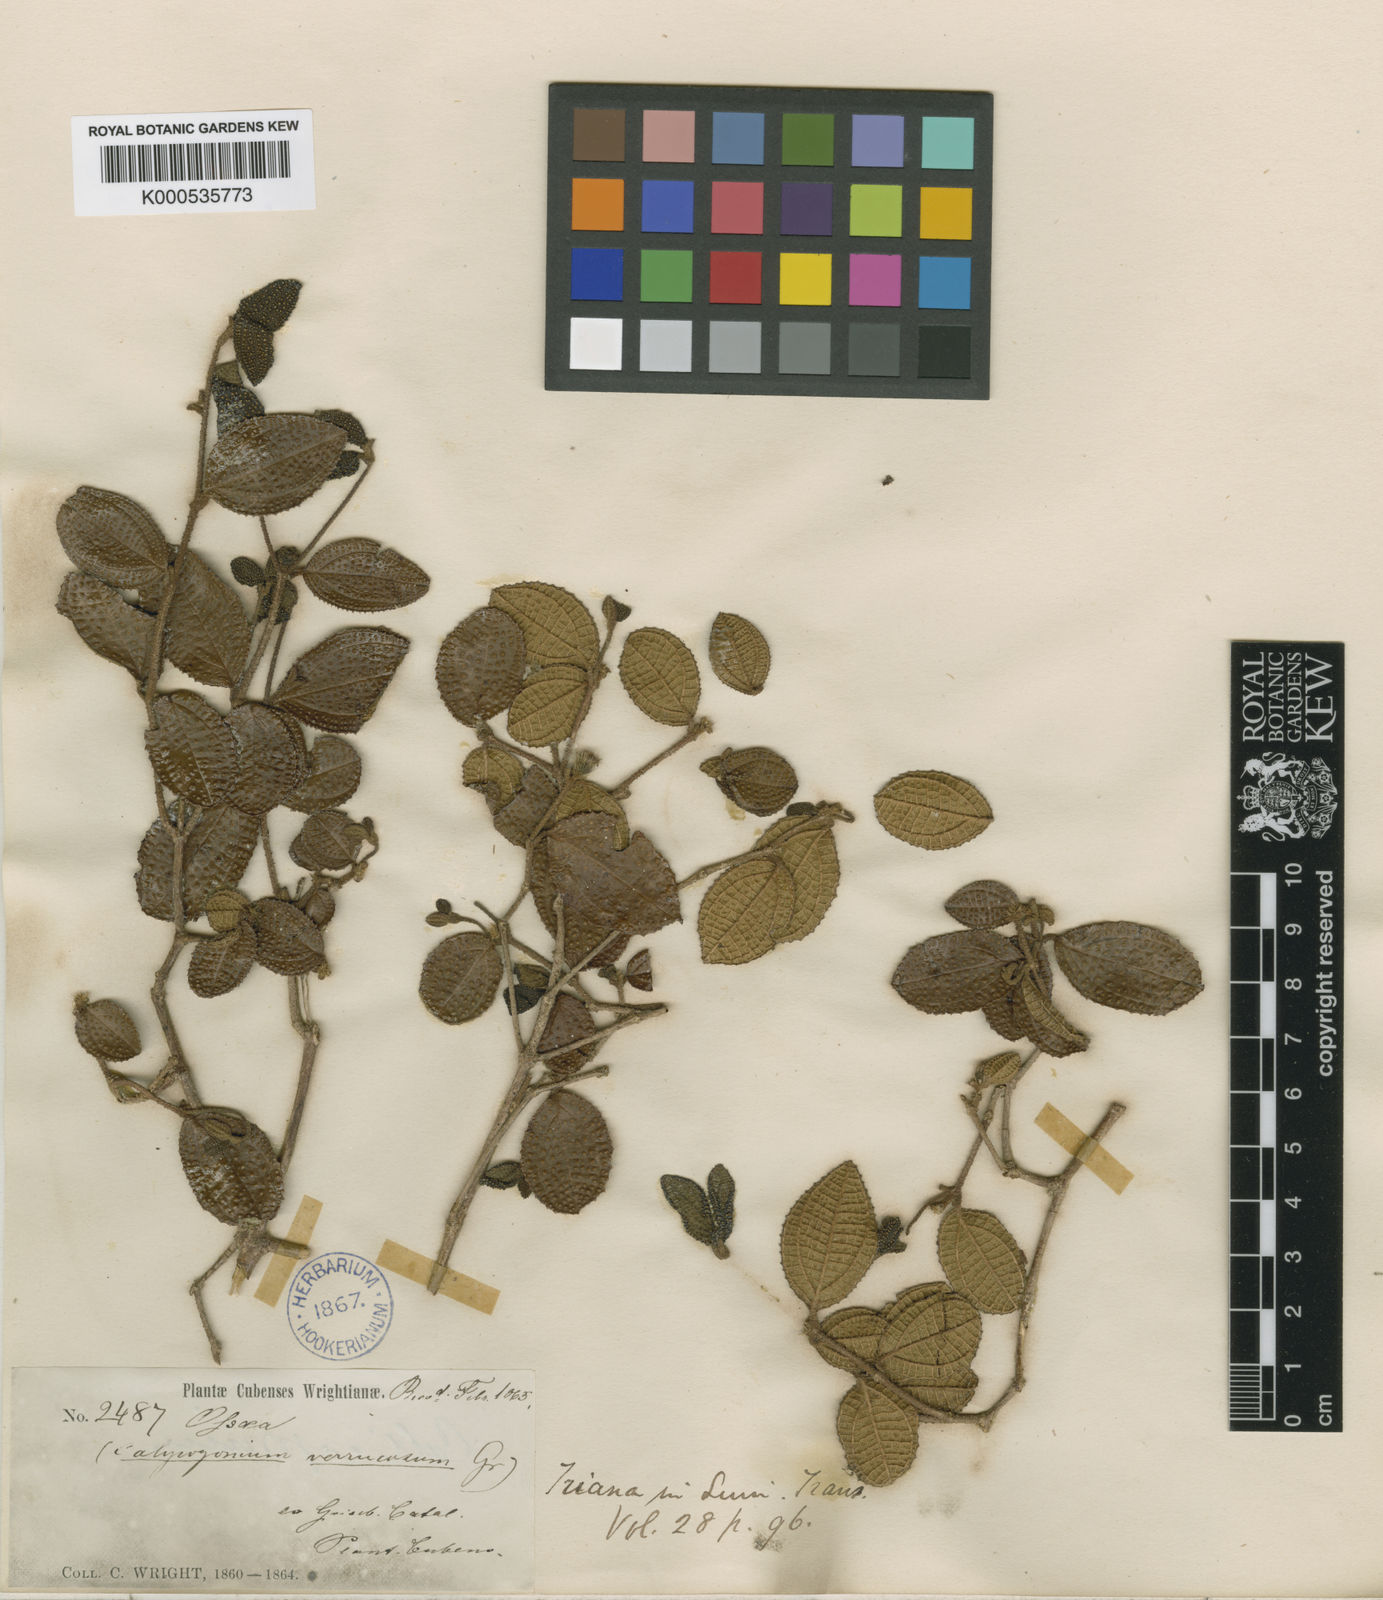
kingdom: Plantae
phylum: Tracheophyta
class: Magnoliopsida
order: Myrtales
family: Melastomataceae
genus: Miconia
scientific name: Miconia verrucosa
